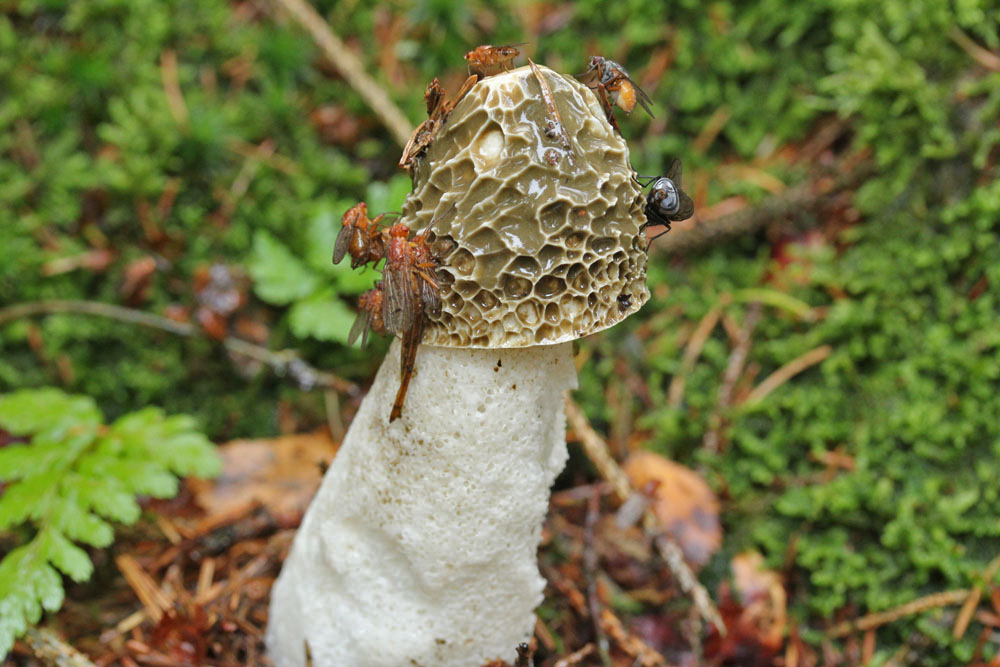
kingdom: Fungi
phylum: Basidiomycota
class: Agaricomycetes
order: Phallales
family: Phallaceae
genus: Phallus
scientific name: Phallus impudicus
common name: almindelig stinksvamp
